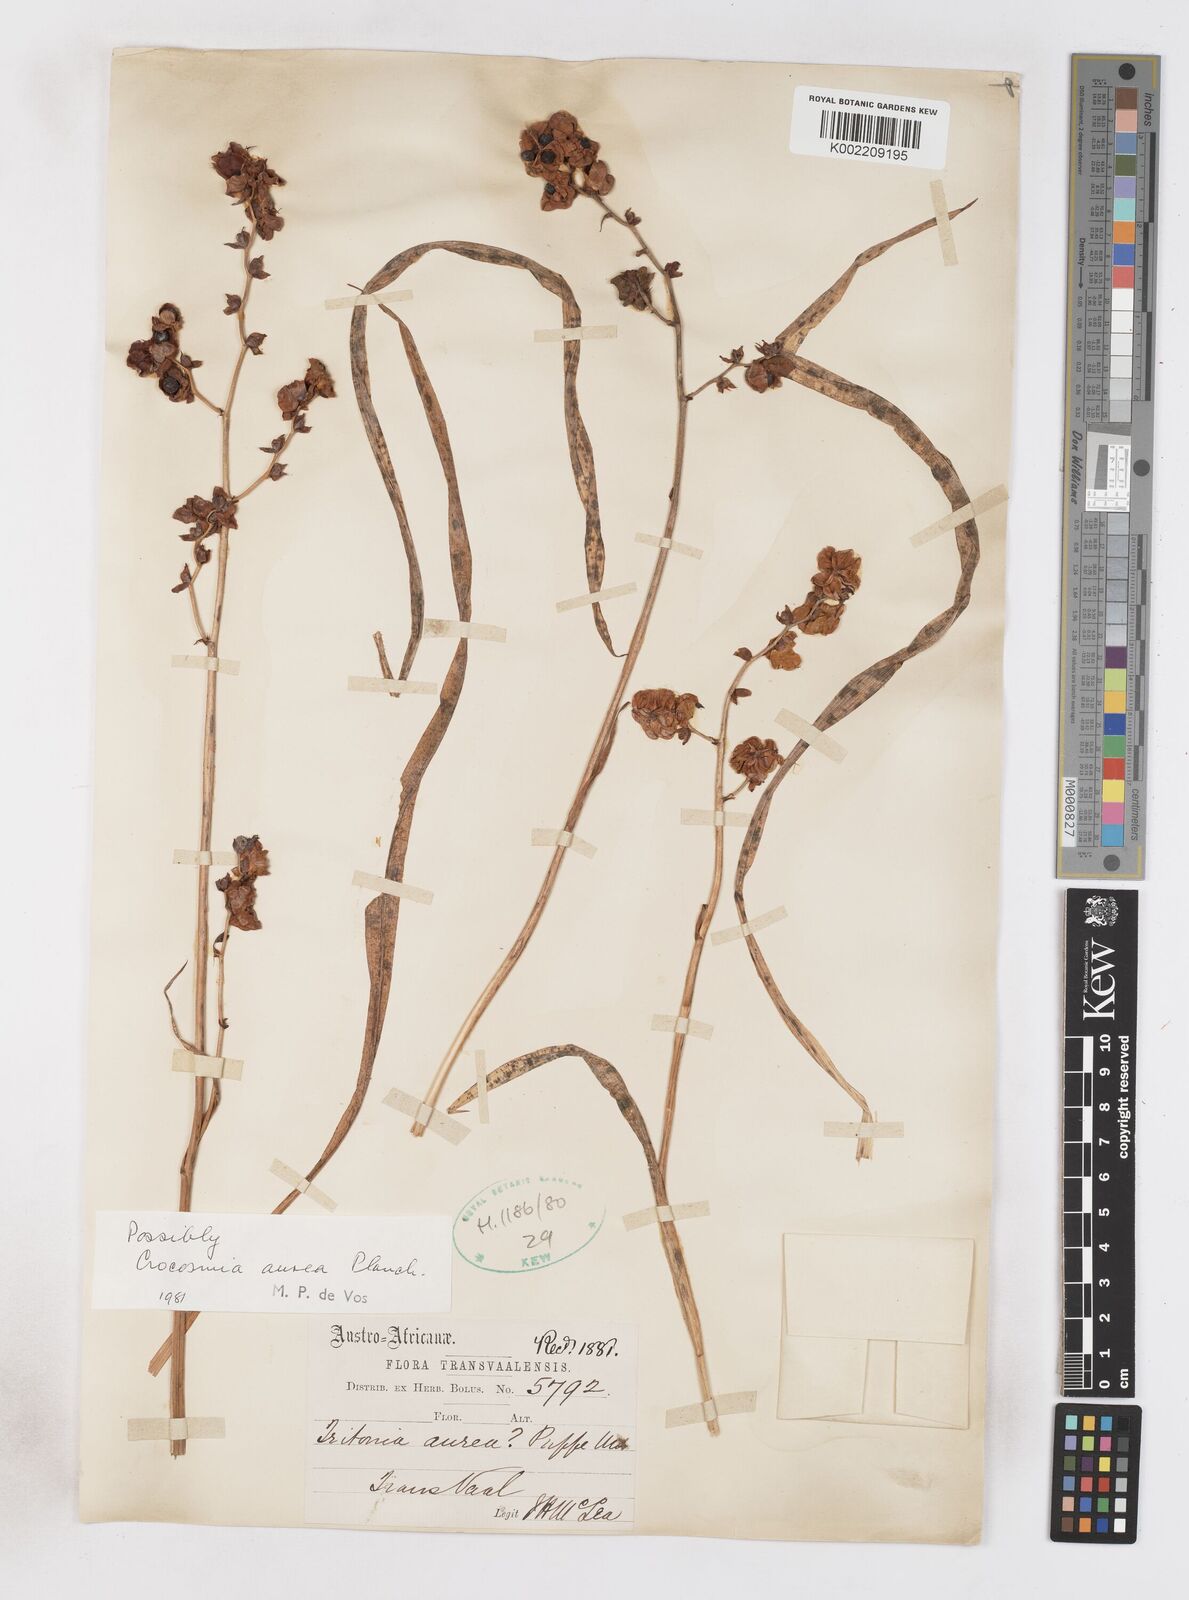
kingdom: Plantae
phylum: Tracheophyta
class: Liliopsida
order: Asparagales
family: Iridaceae
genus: Crocosmia
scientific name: Crocosmia aurea
